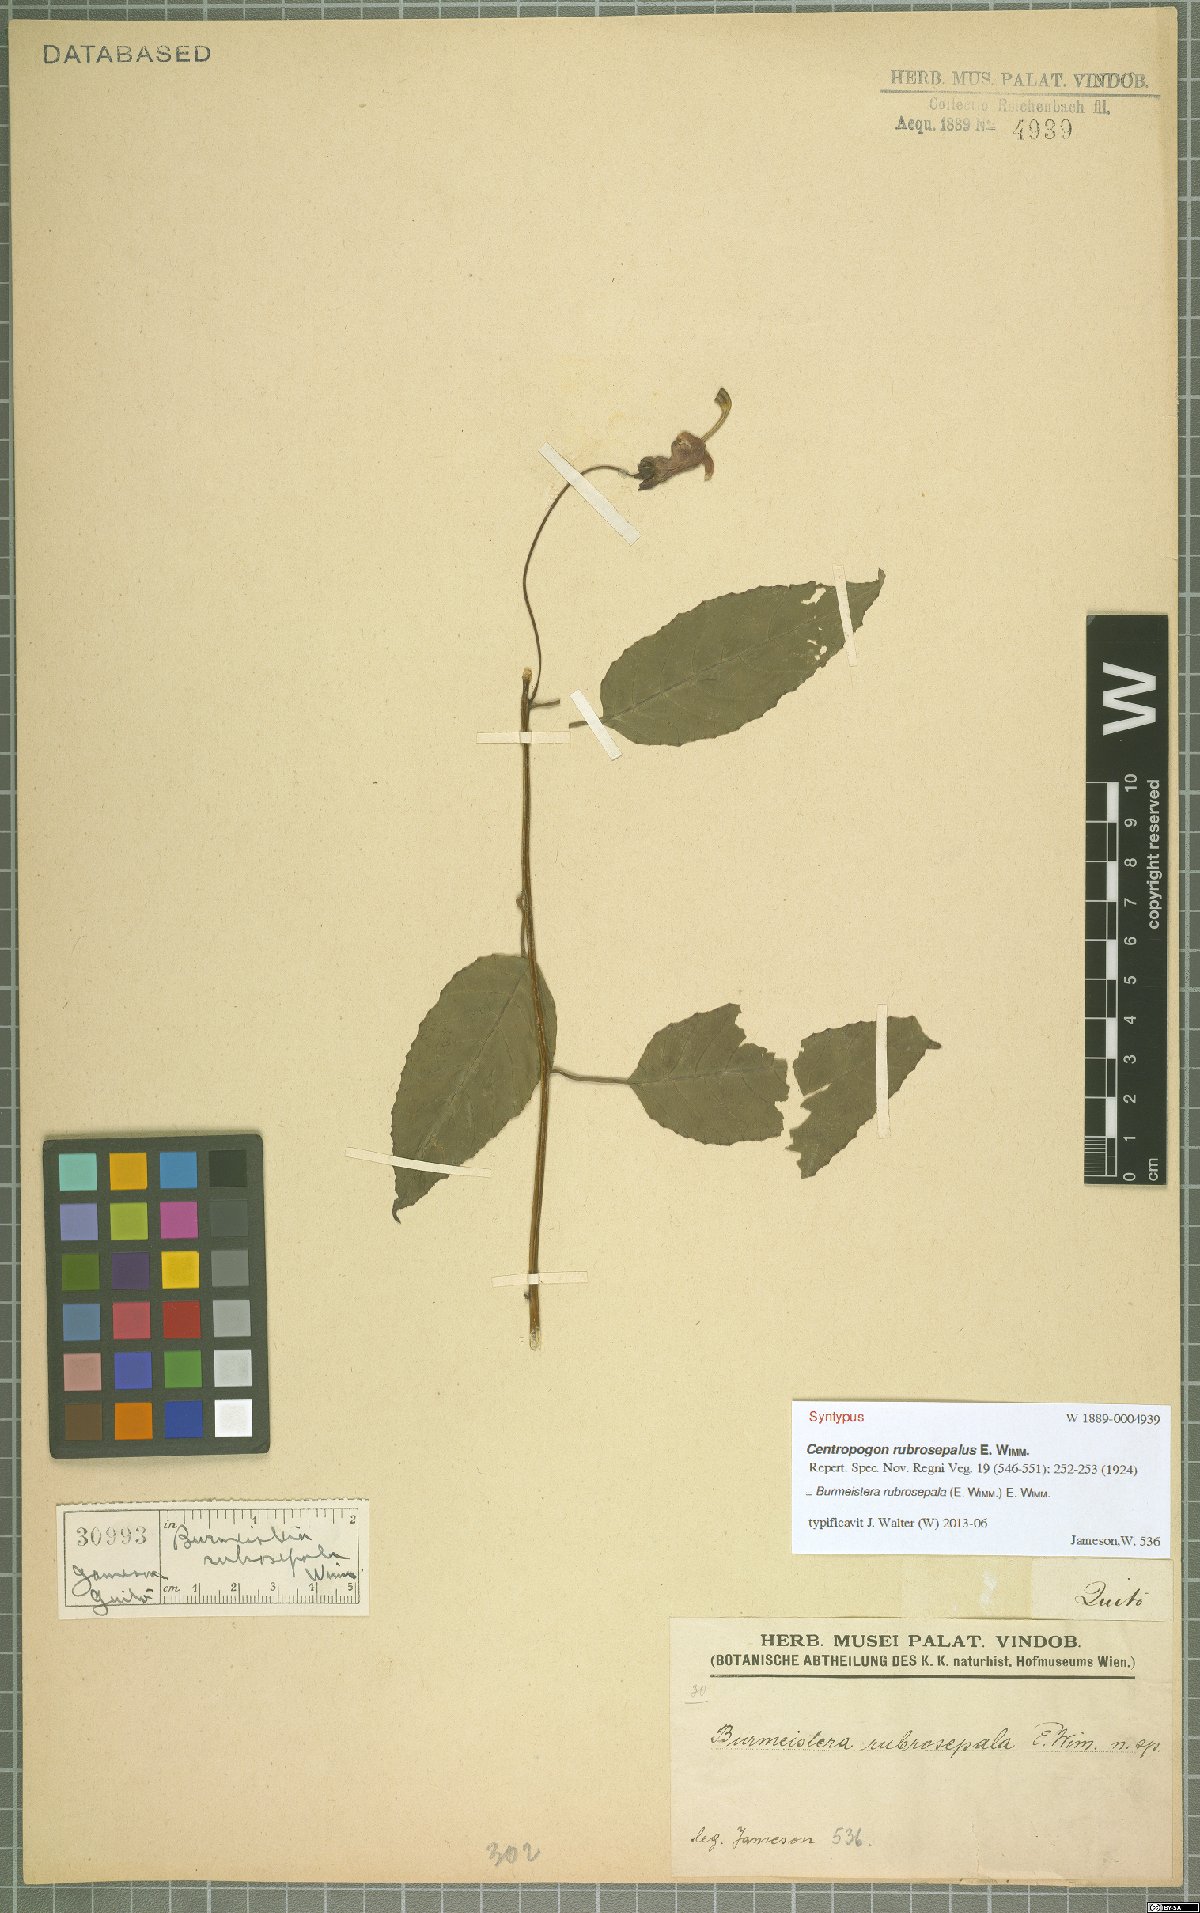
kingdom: Plantae
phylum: Tracheophyta
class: Magnoliopsida
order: Asterales
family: Campanulaceae
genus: Burmeistera
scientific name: Burmeistera rubrosepala
